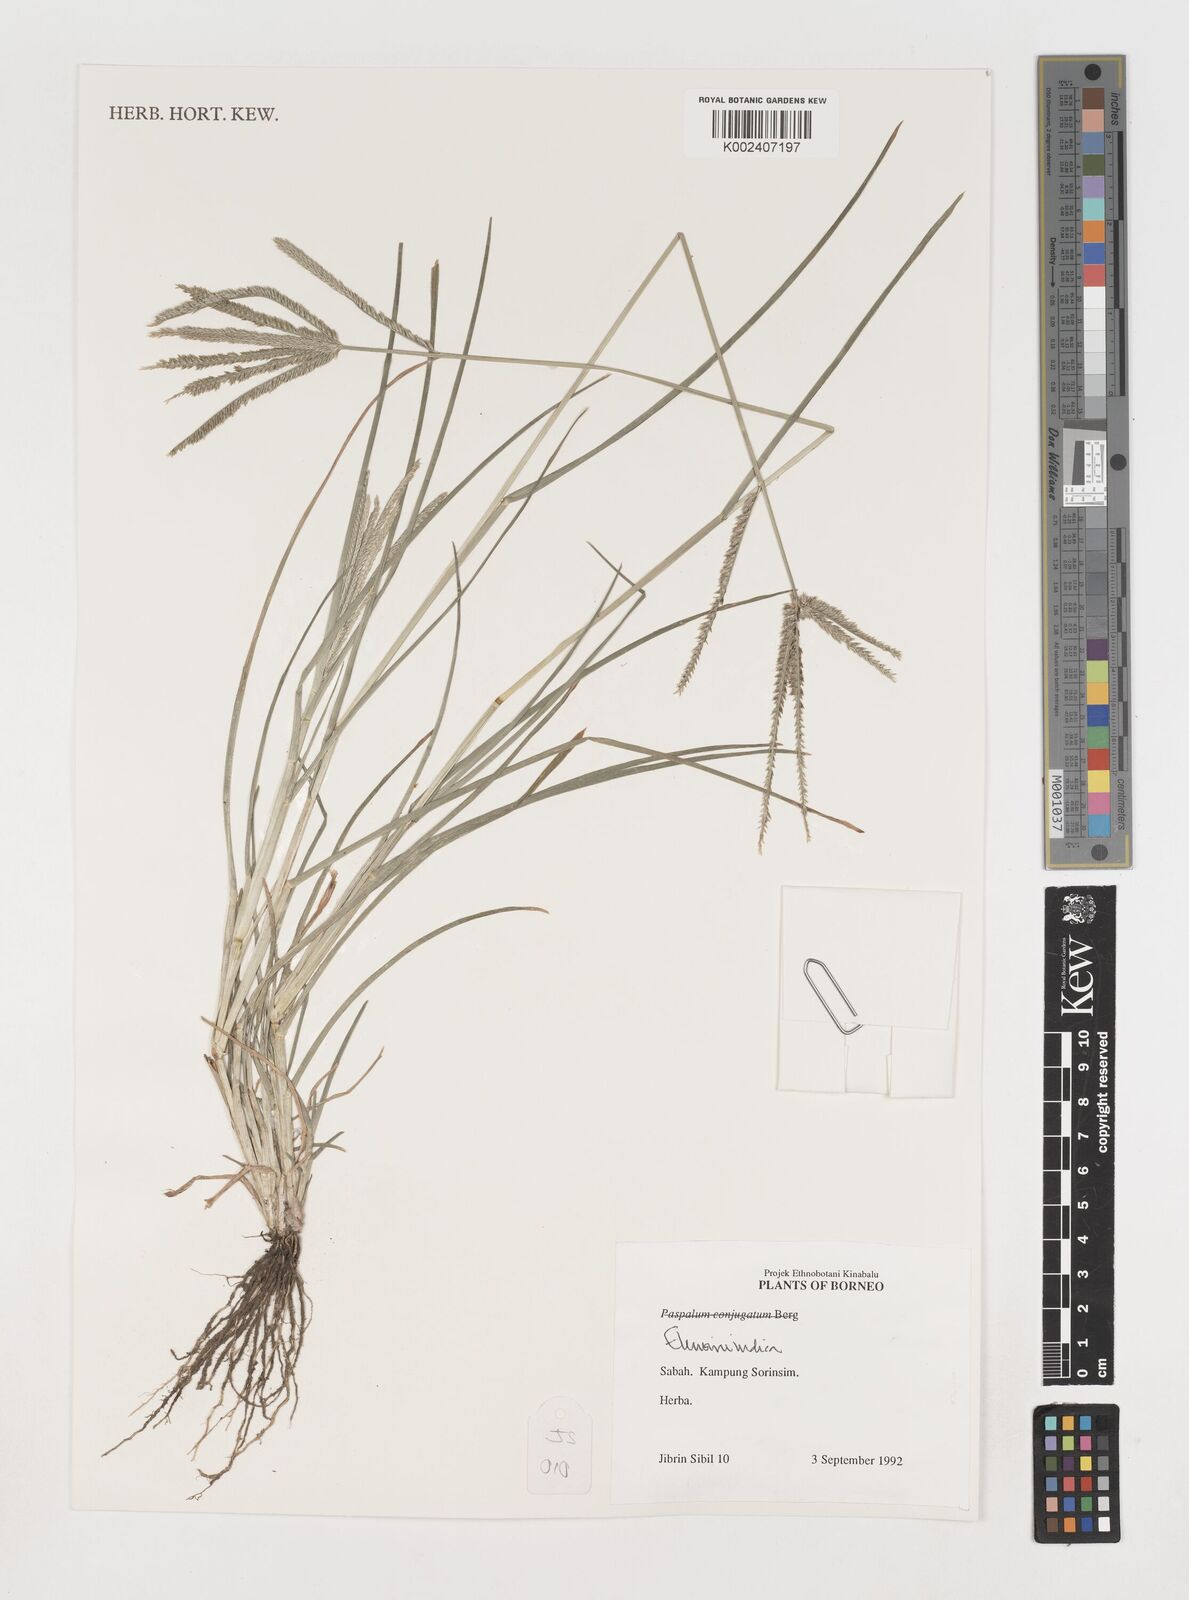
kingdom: Plantae
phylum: Tracheophyta
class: Liliopsida
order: Poales
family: Poaceae
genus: Eleusine
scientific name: Eleusine indica
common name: Yard-grass
